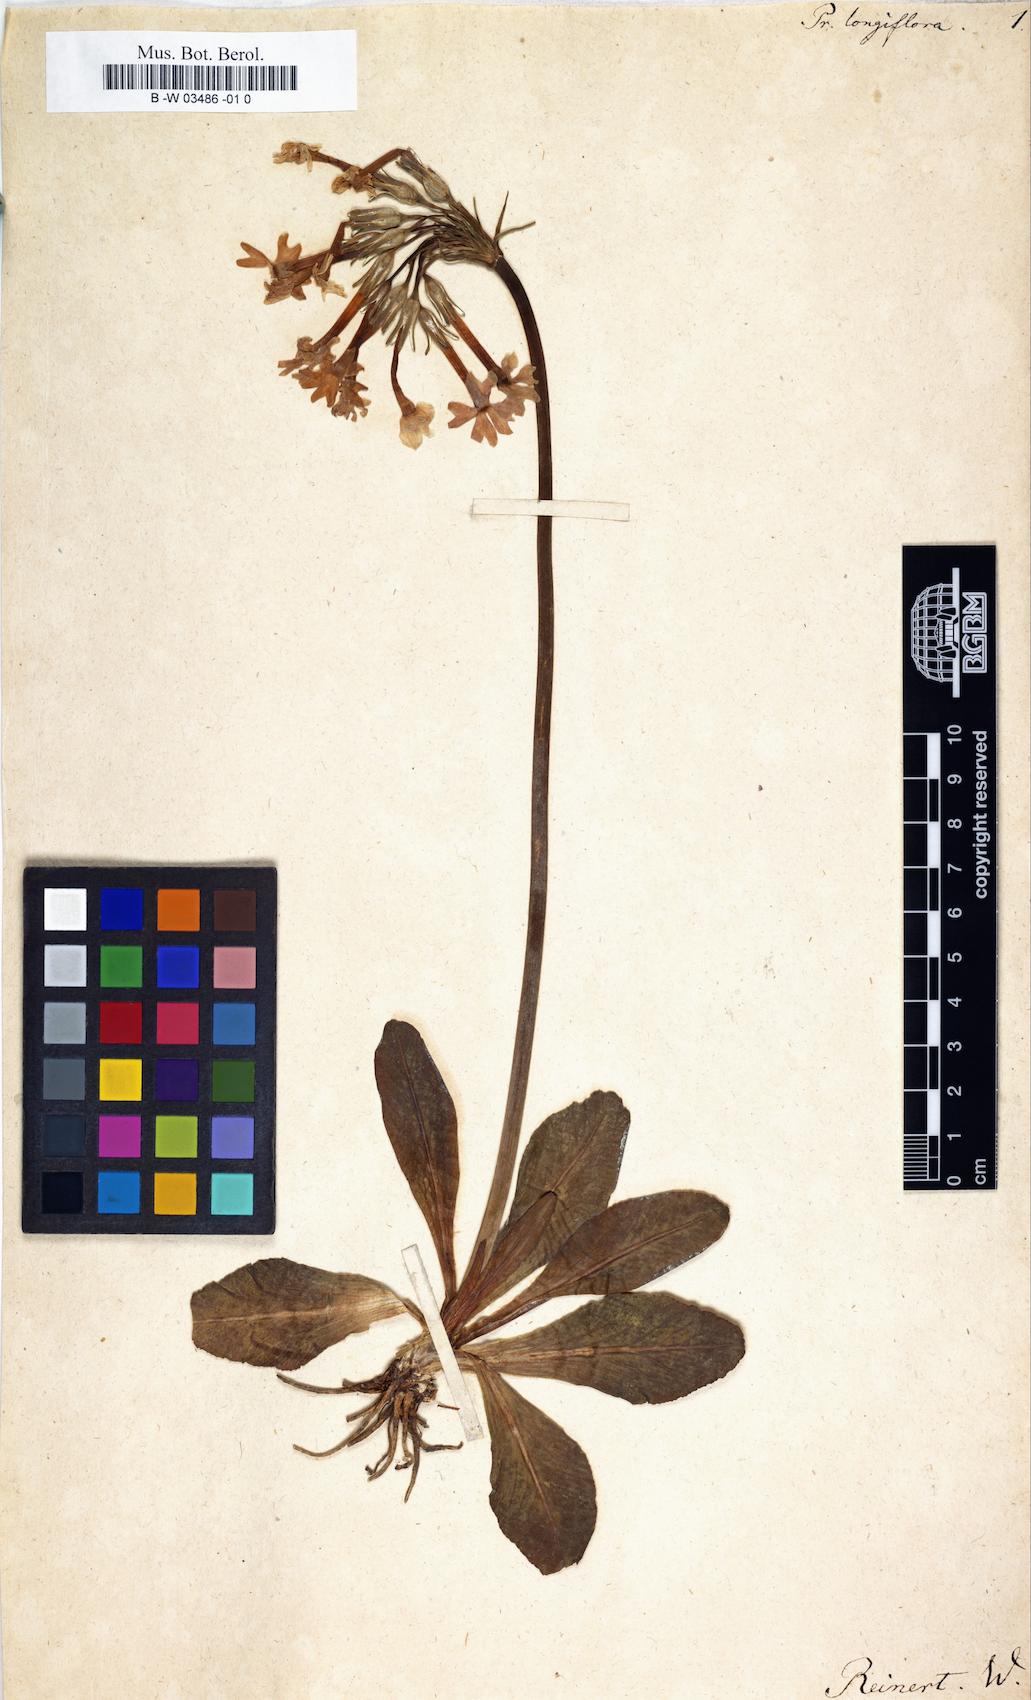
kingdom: Plantae
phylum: Tracheophyta
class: Magnoliopsida
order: Ericales
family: Primulaceae
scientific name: Primulaceae
